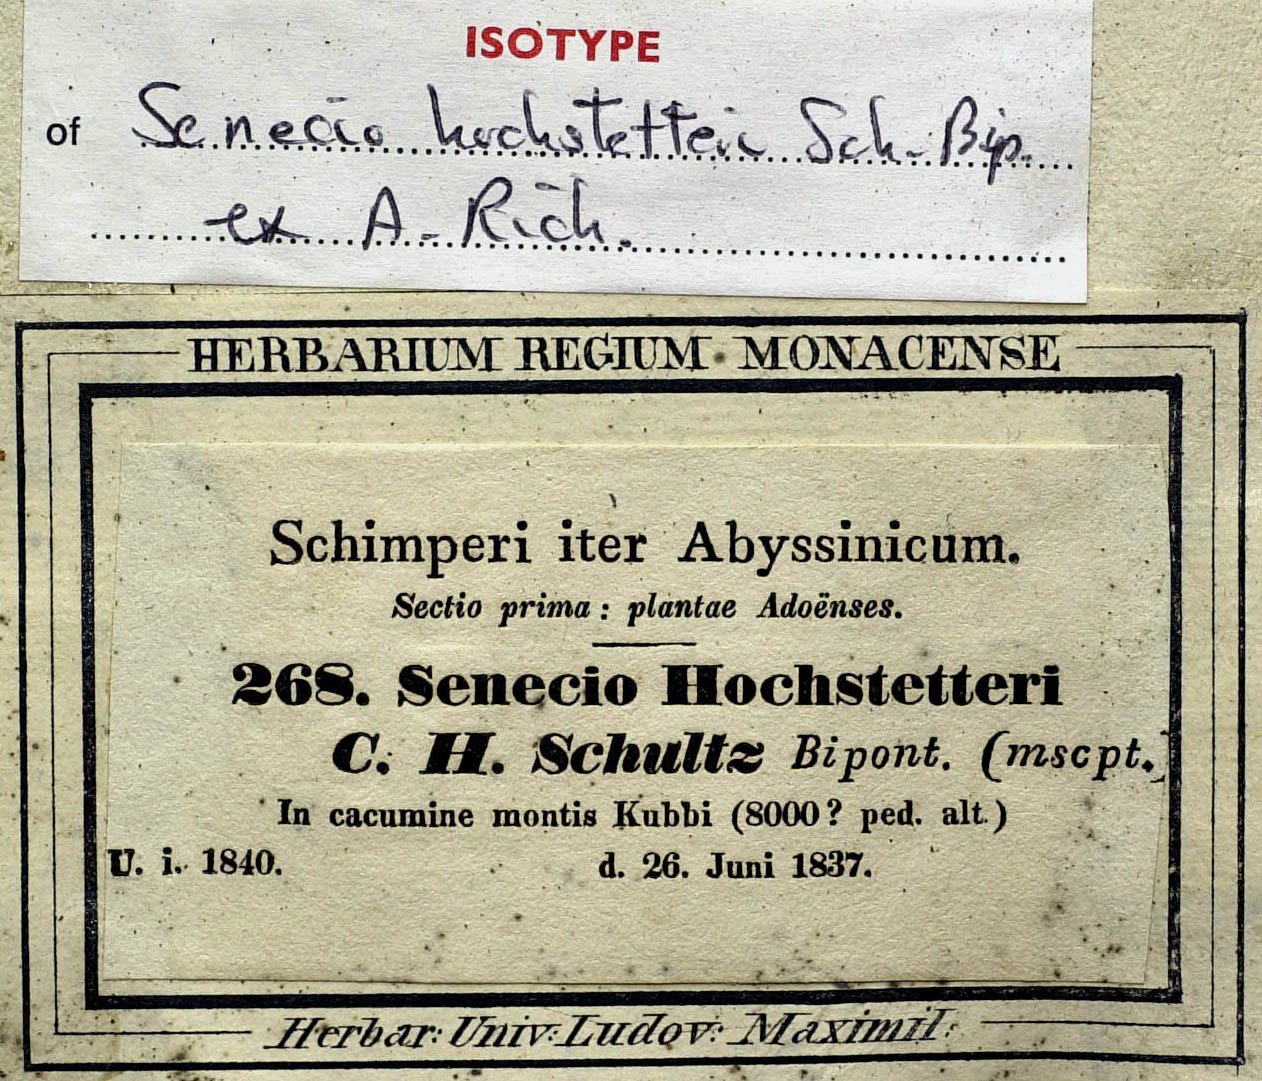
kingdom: Plantae
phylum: Tracheophyta
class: Magnoliopsida
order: Asterales
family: Asteraceae
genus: Senecio
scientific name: Senecio hochstetteri
